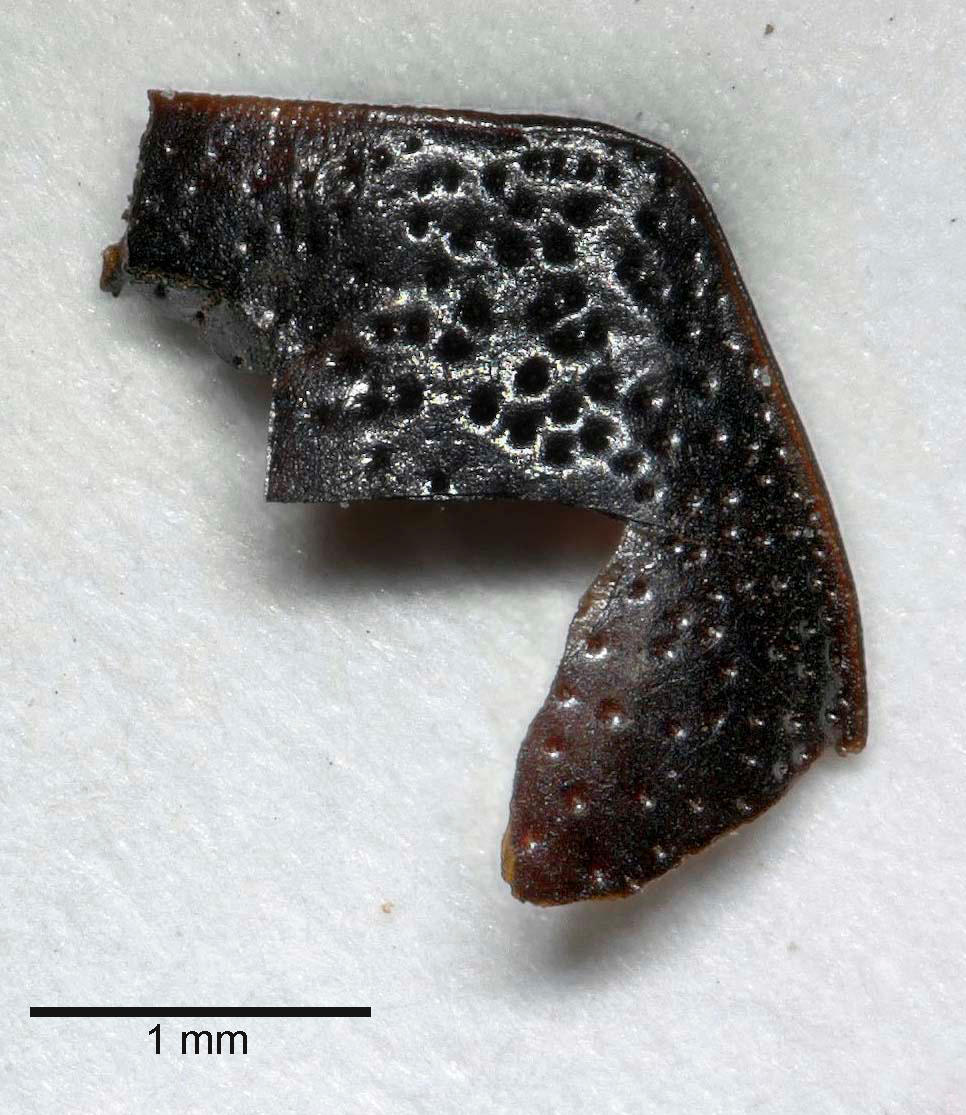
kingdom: Animalia
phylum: Arthropoda
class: Insecta
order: Coleoptera
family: Carabidae
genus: Dicheirus
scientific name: Dicheirus dilatatus
